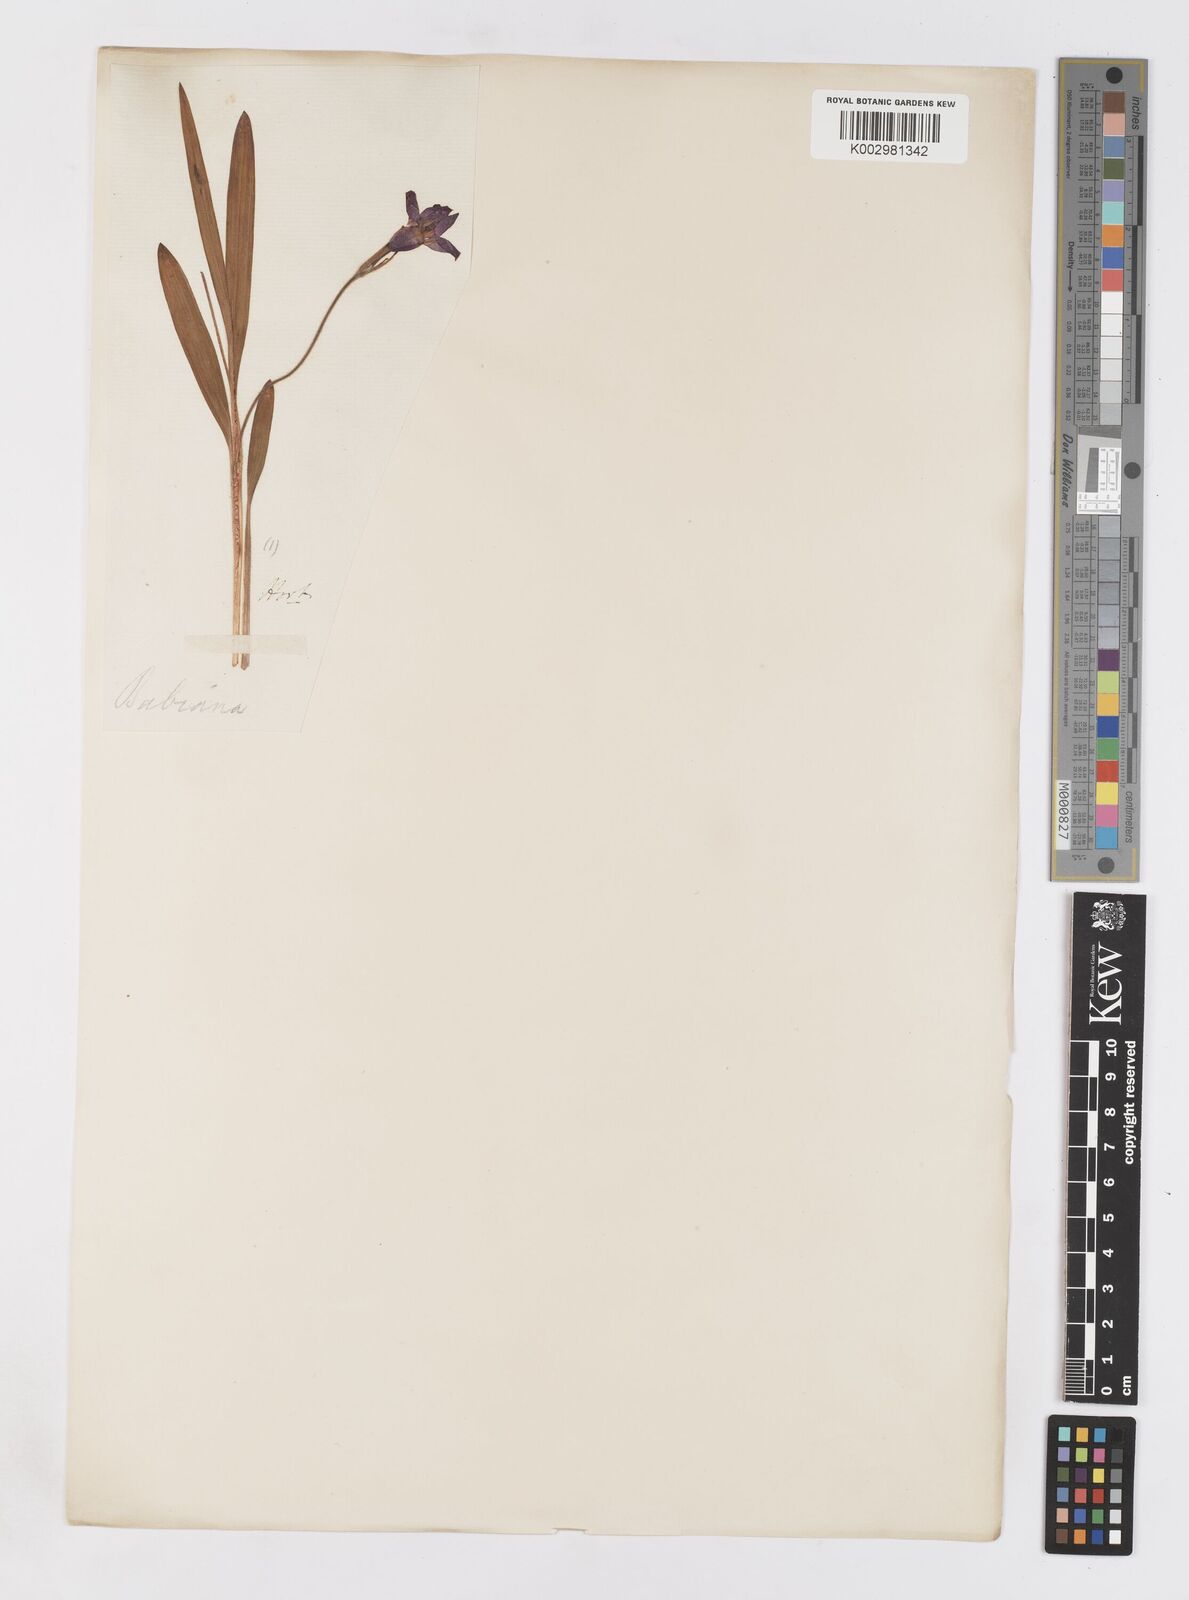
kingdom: Plantae
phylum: Tracheophyta
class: Liliopsida
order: Asparagales
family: Iridaceae
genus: Babiana
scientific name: Babiana
